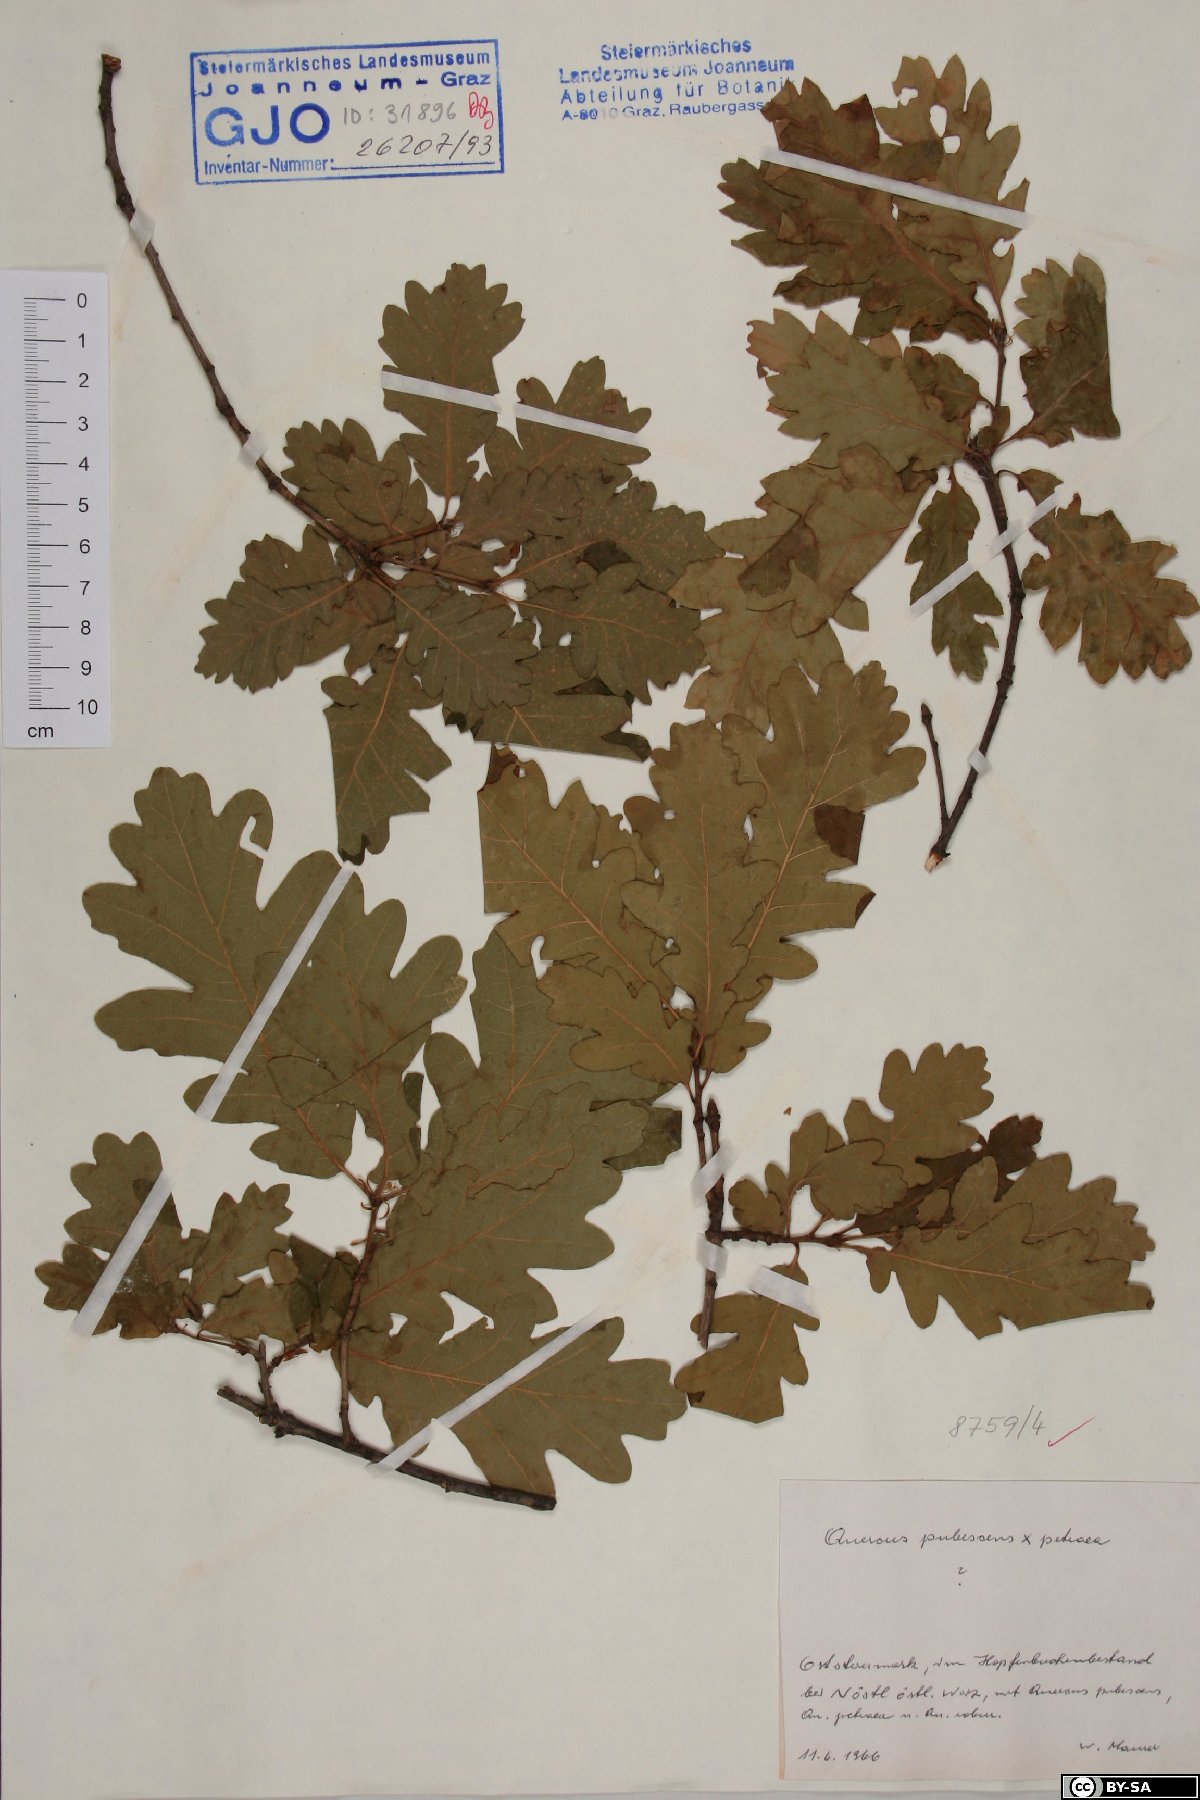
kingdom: Plantae
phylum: Tracheophyta
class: Magnoliopsida
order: Fagales
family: Fagaceae
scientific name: Fagaceae
